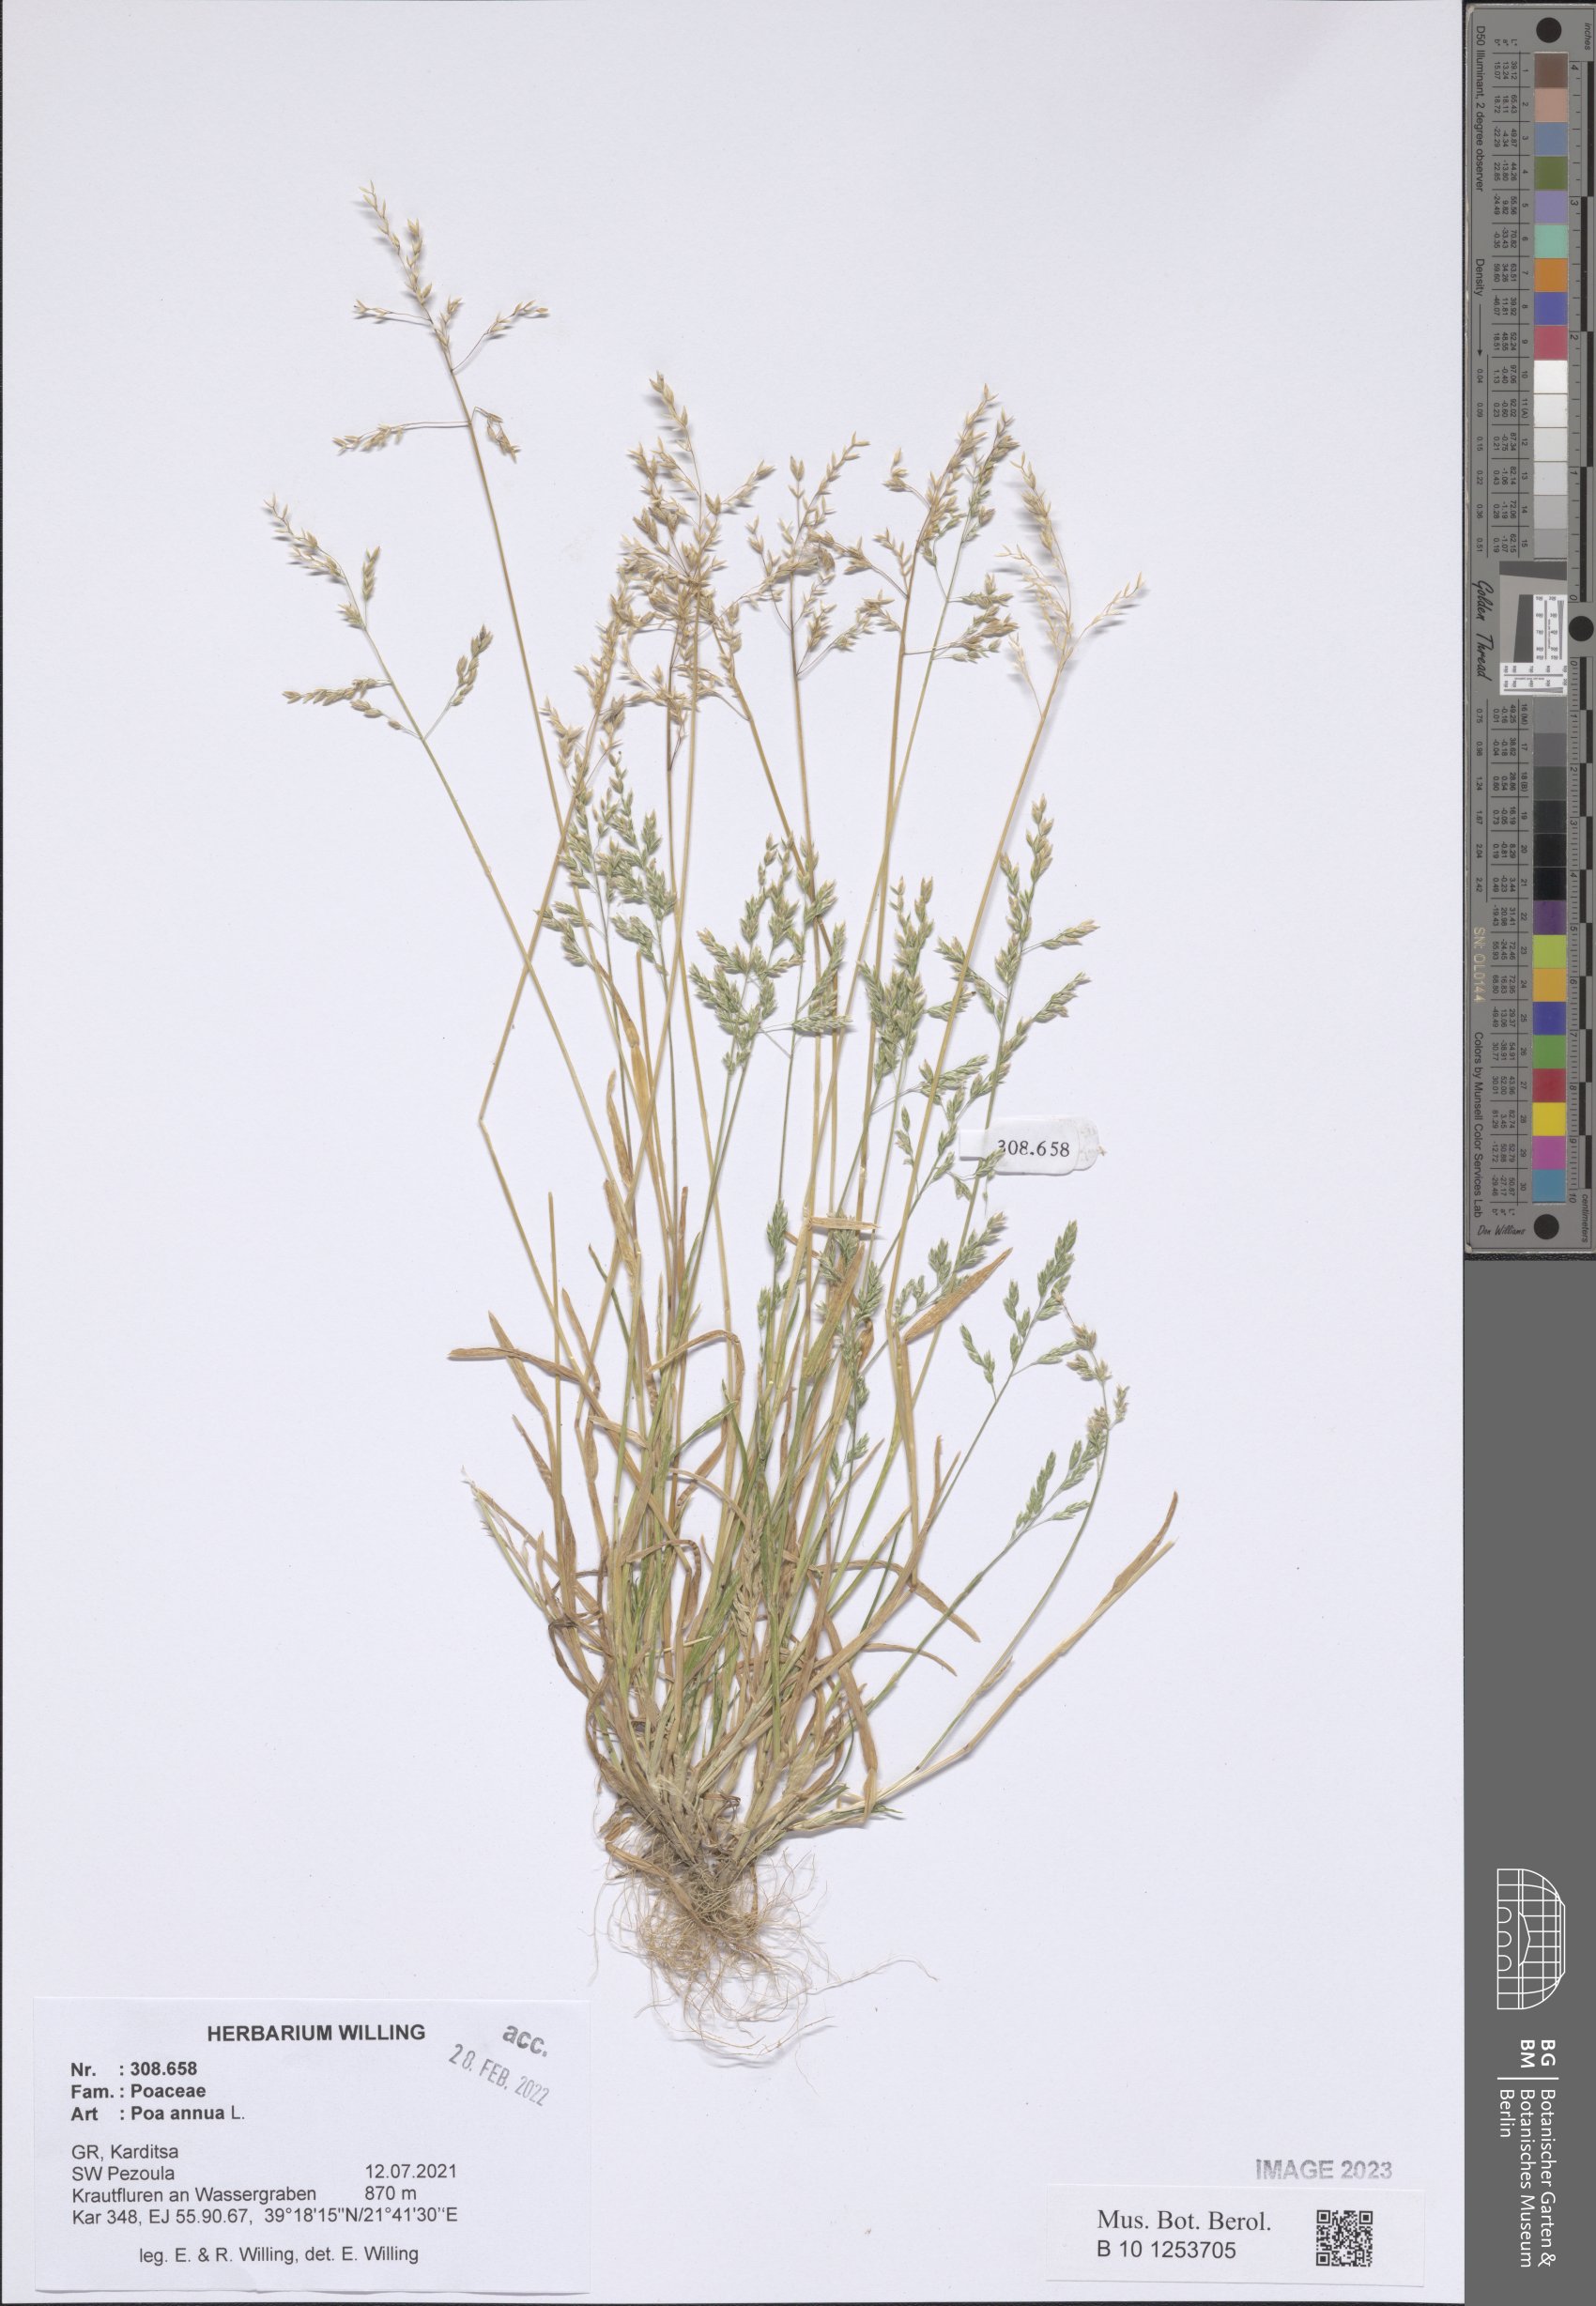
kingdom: Plantae
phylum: Tracheophyta
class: Liliopsida
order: Poales
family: Poaceae
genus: Poa
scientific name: Poa annua
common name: Annual bluegrass
